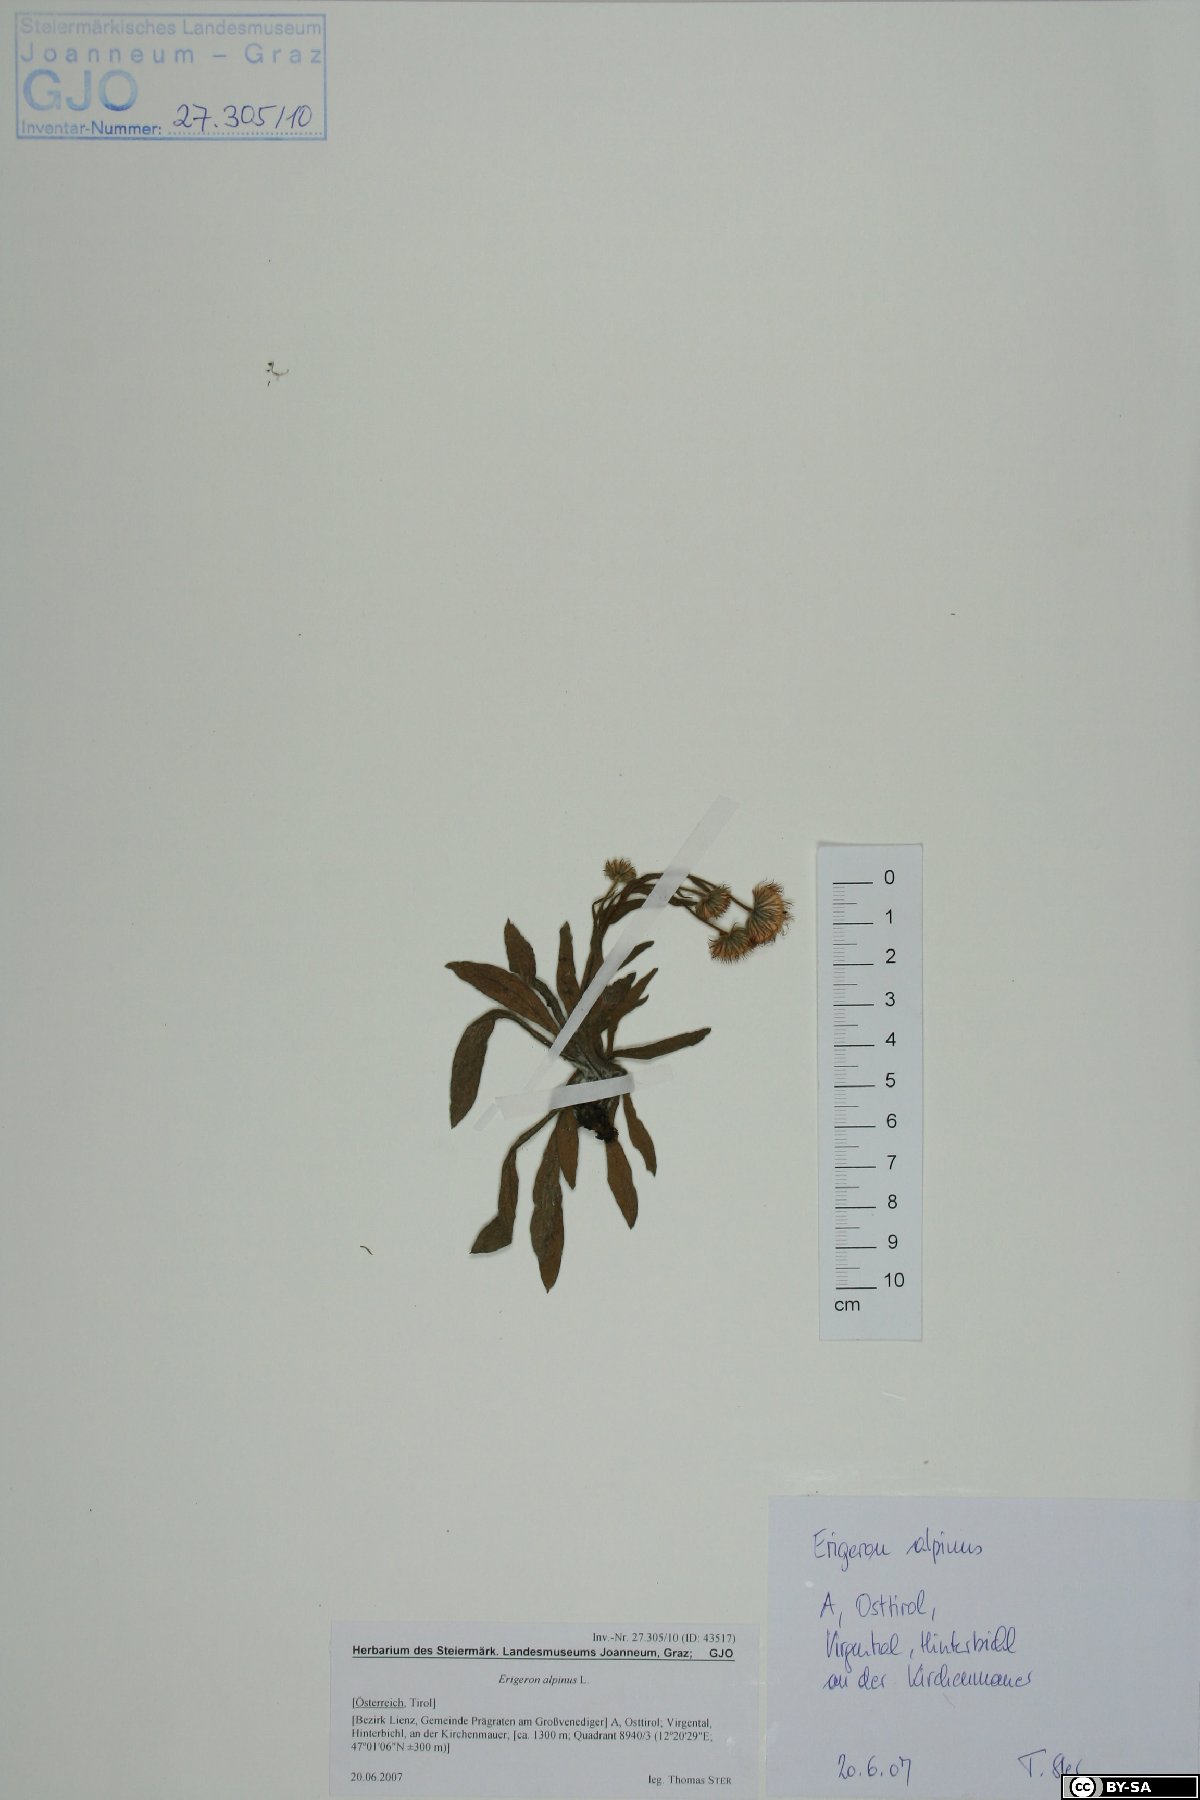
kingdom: Plantae
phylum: Tracheophyta
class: Magnoliopsida
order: Asterales
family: Asteraceae
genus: Erigeron
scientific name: Erigeron alpinus
